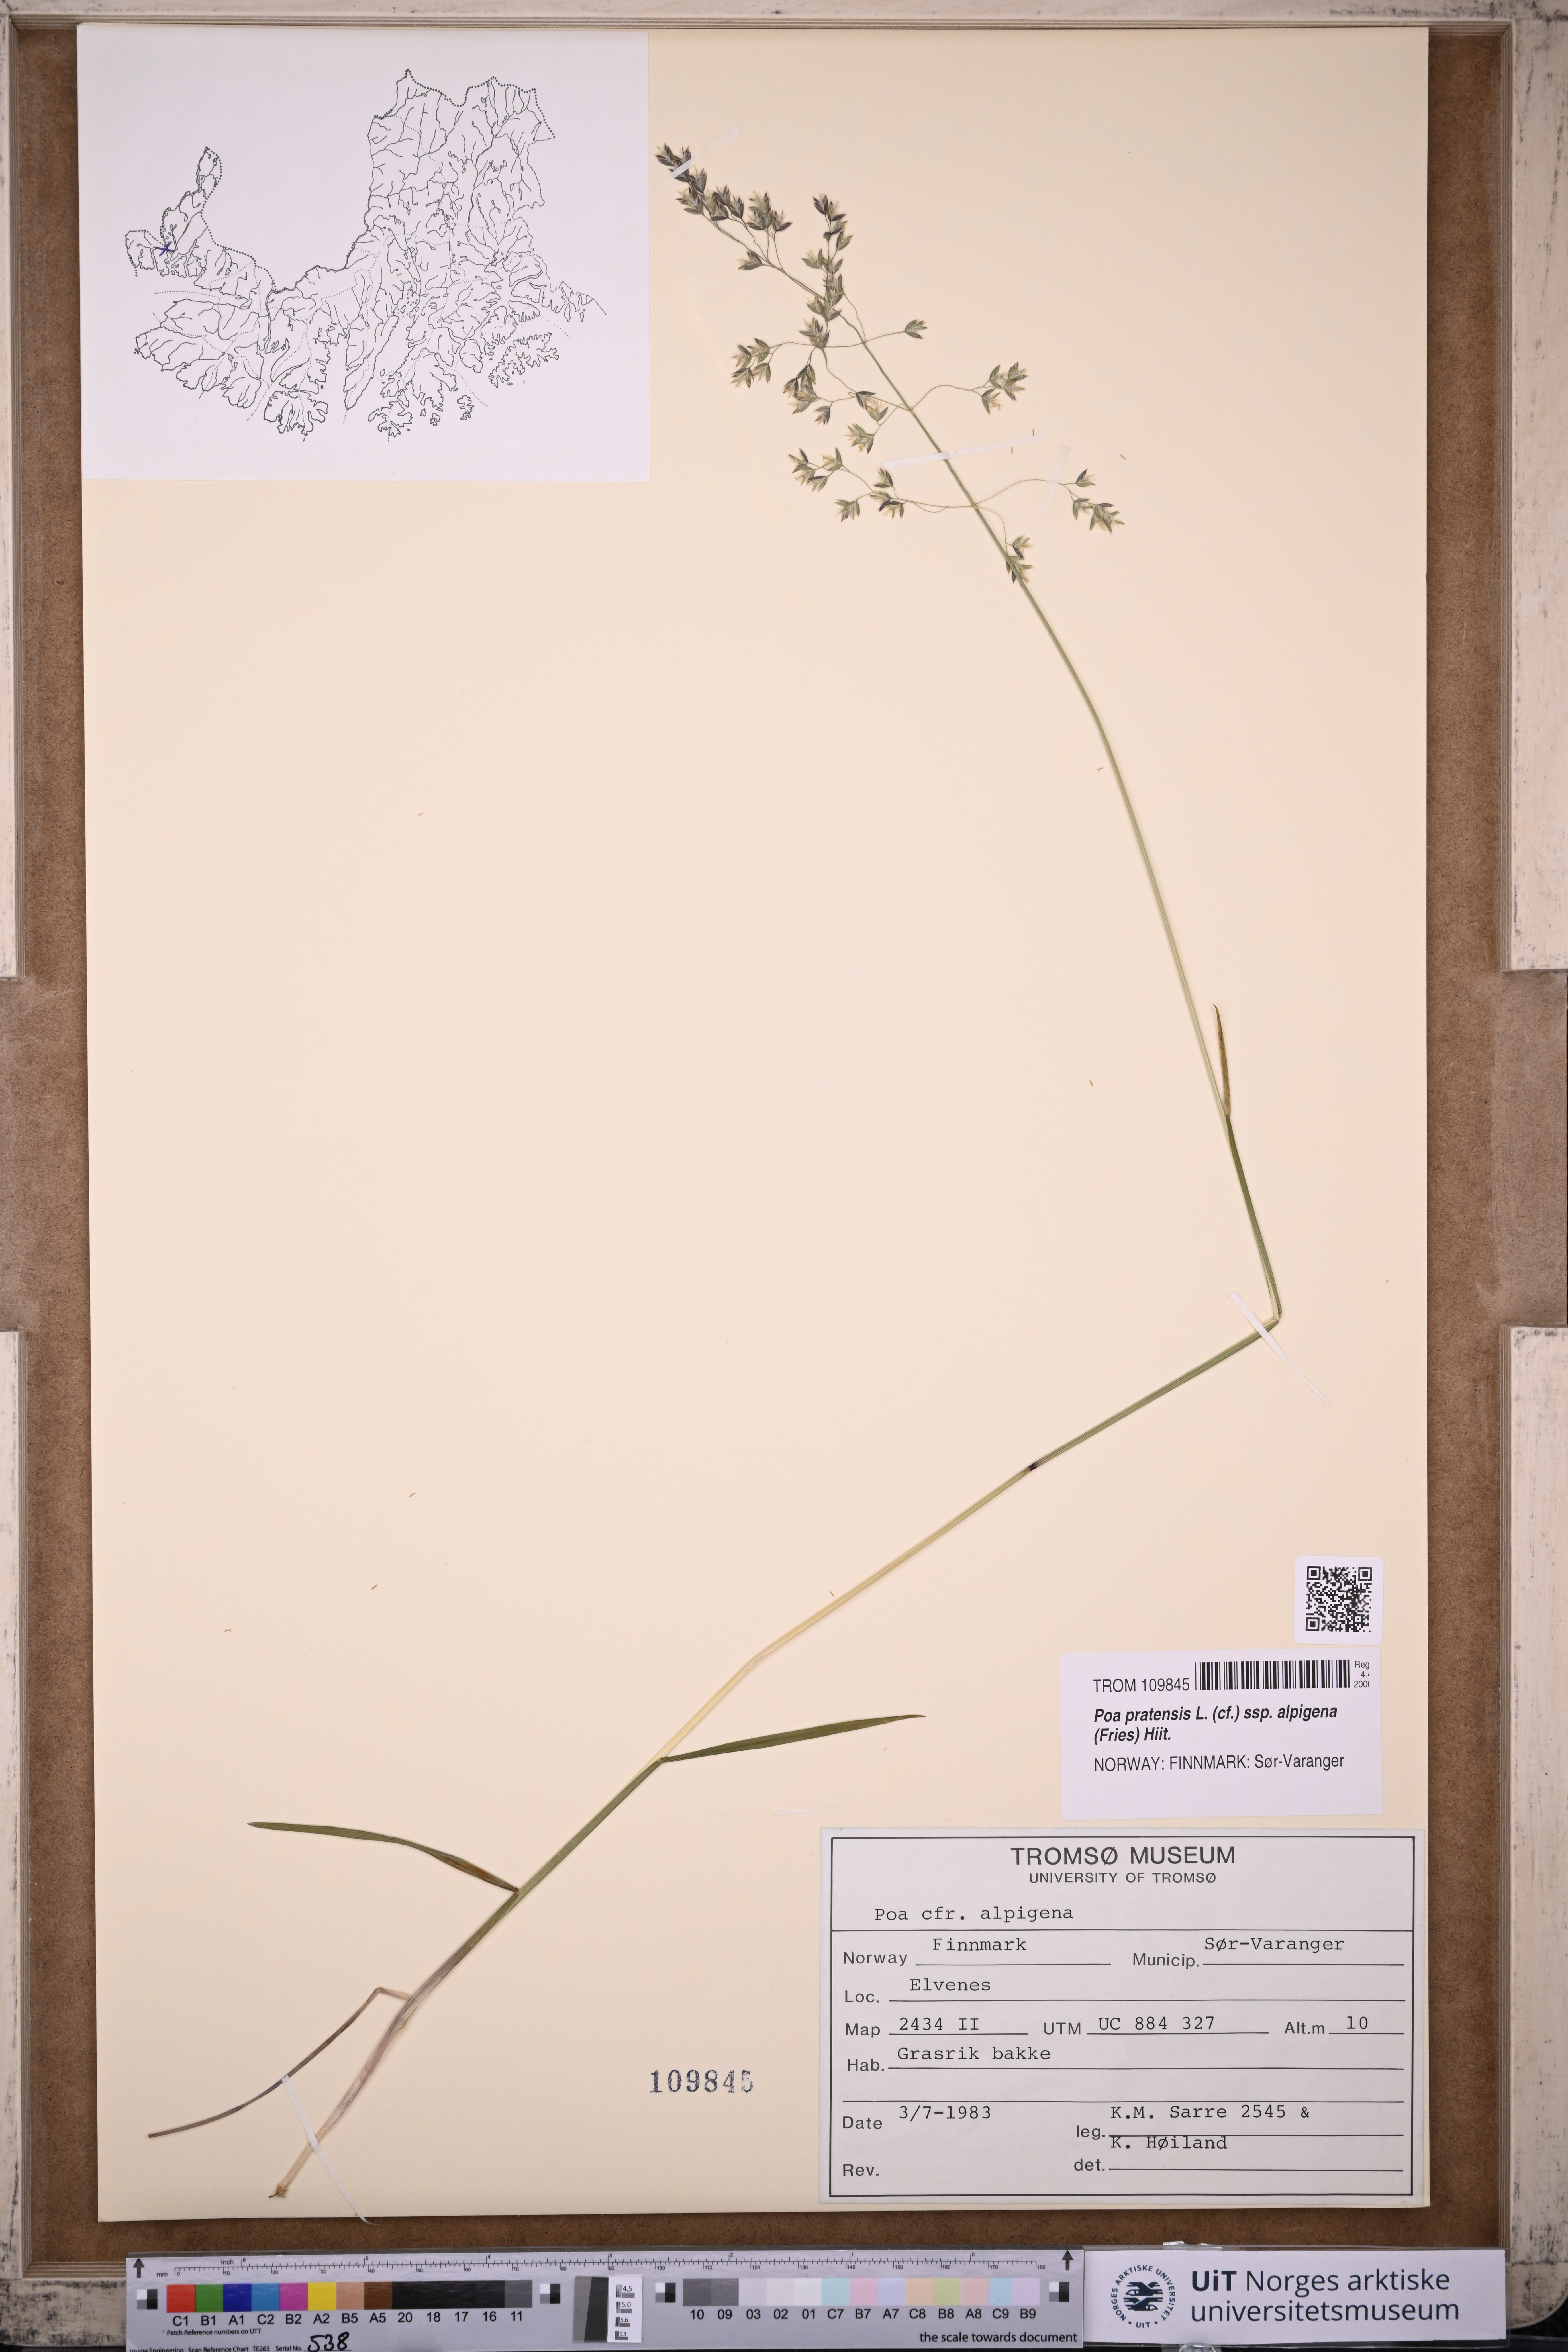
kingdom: Plantae
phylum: Tracheophyta
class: Liliopsida
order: Poales
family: Poaceae
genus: Poa
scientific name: Poa alpigena
